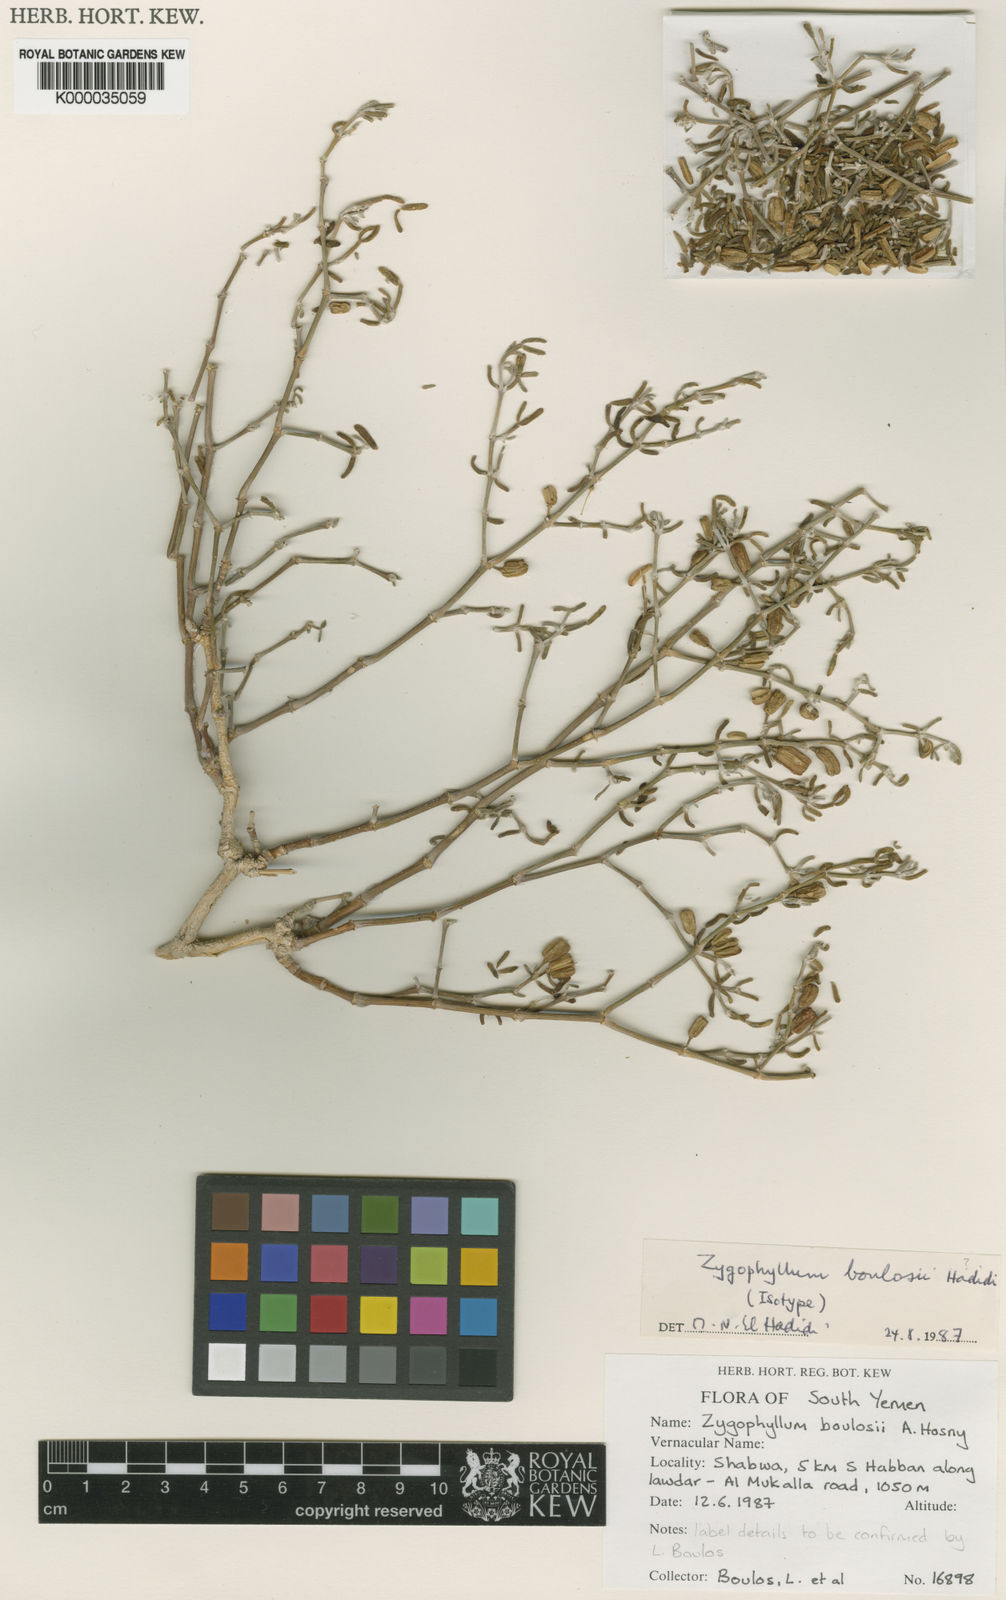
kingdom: Plantae
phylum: Tracheophyta
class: Magnoliopsida
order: Zygophyllales
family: Zygophyllaceae
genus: Tetraena
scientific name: Tetraena propinqua
